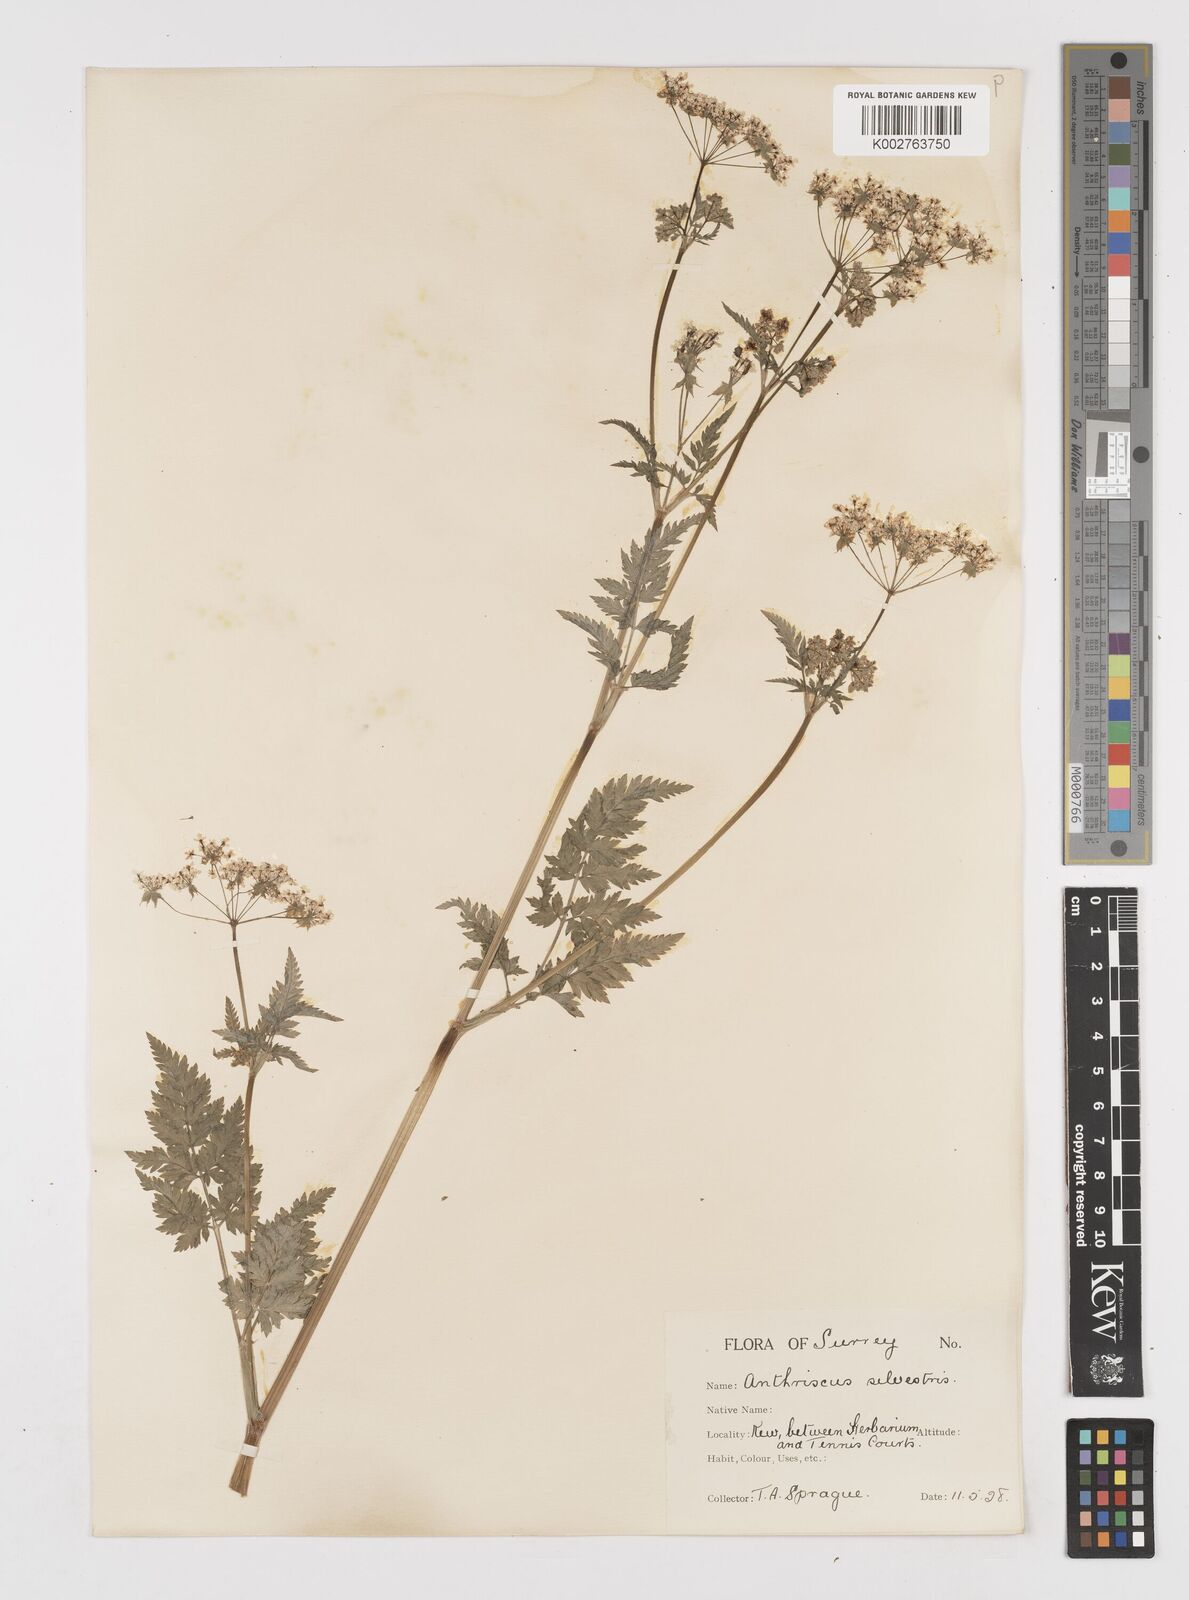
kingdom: Plantae
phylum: Tracheophyta
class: Magnoliopsida
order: Apiales
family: Apiaceae
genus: Anthriscus
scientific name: Anthriscus sylvestris
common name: Cow parsley
